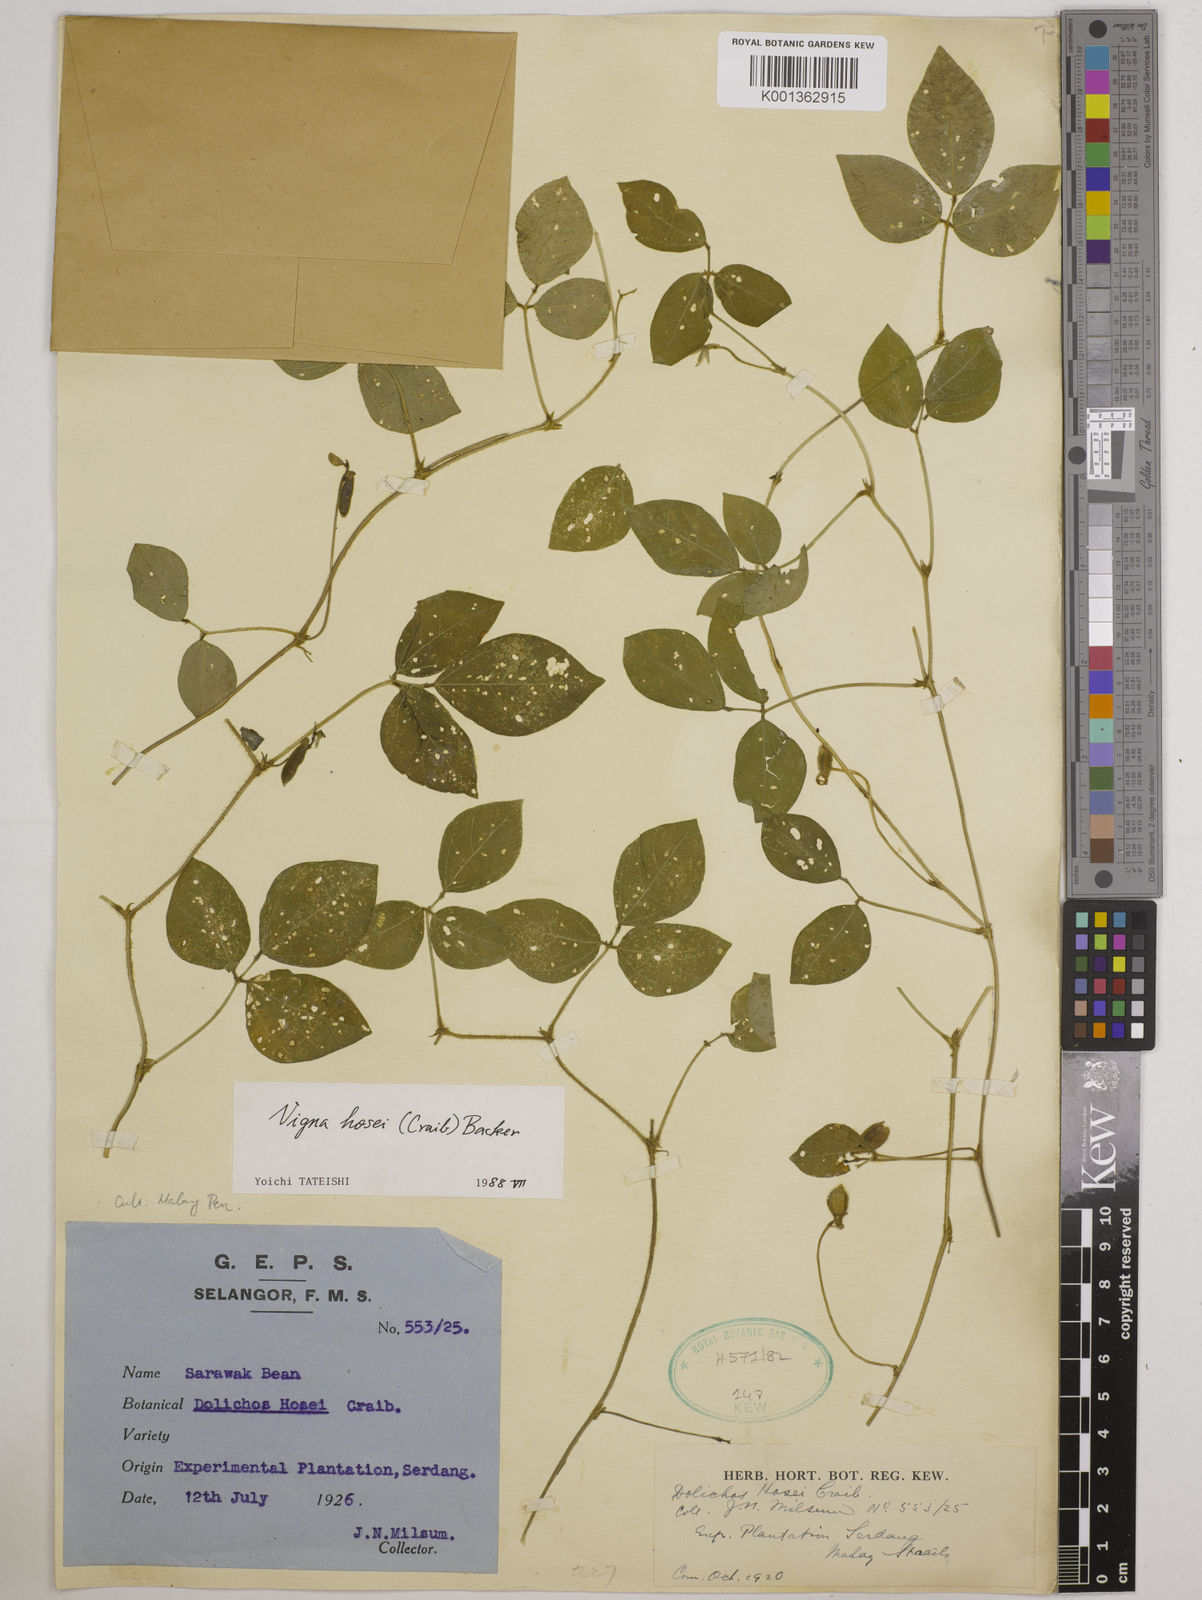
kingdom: Plantae
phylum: Tracheophyta
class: Magnoliopsida
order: Fabales
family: Fabaceae
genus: Vigna
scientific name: Vigna hosei
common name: Sarawak-bean
